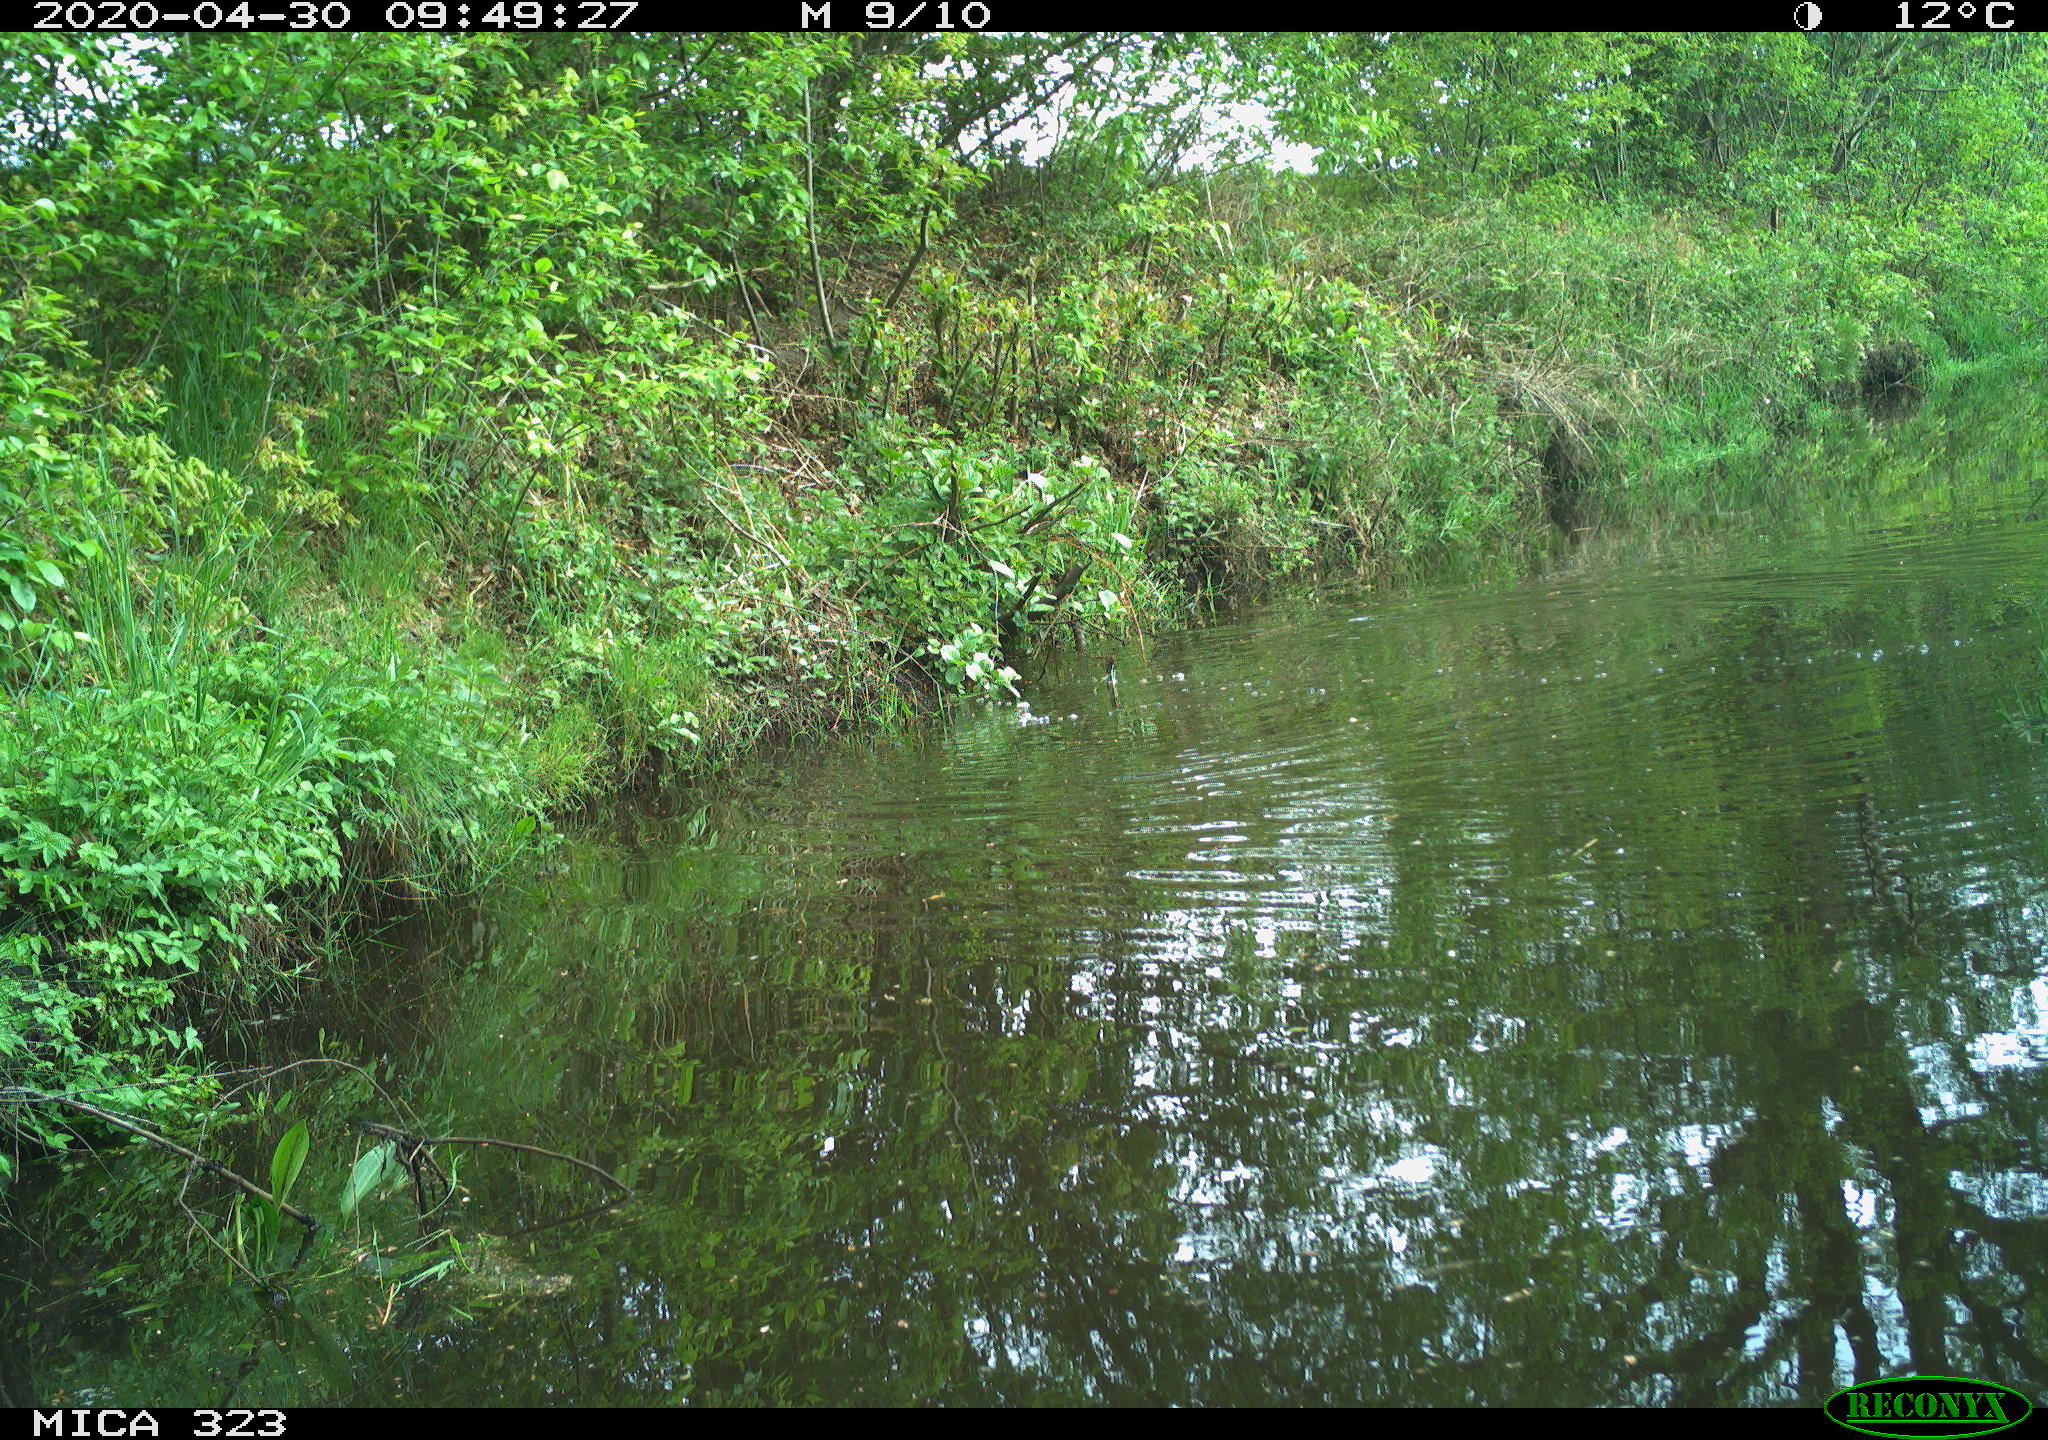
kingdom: Animalia
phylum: Chordata
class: Mammalia
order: Artiodactyla
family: Cervidae
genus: Capreolus
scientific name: Capreolus capreolus
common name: Western roe deer
